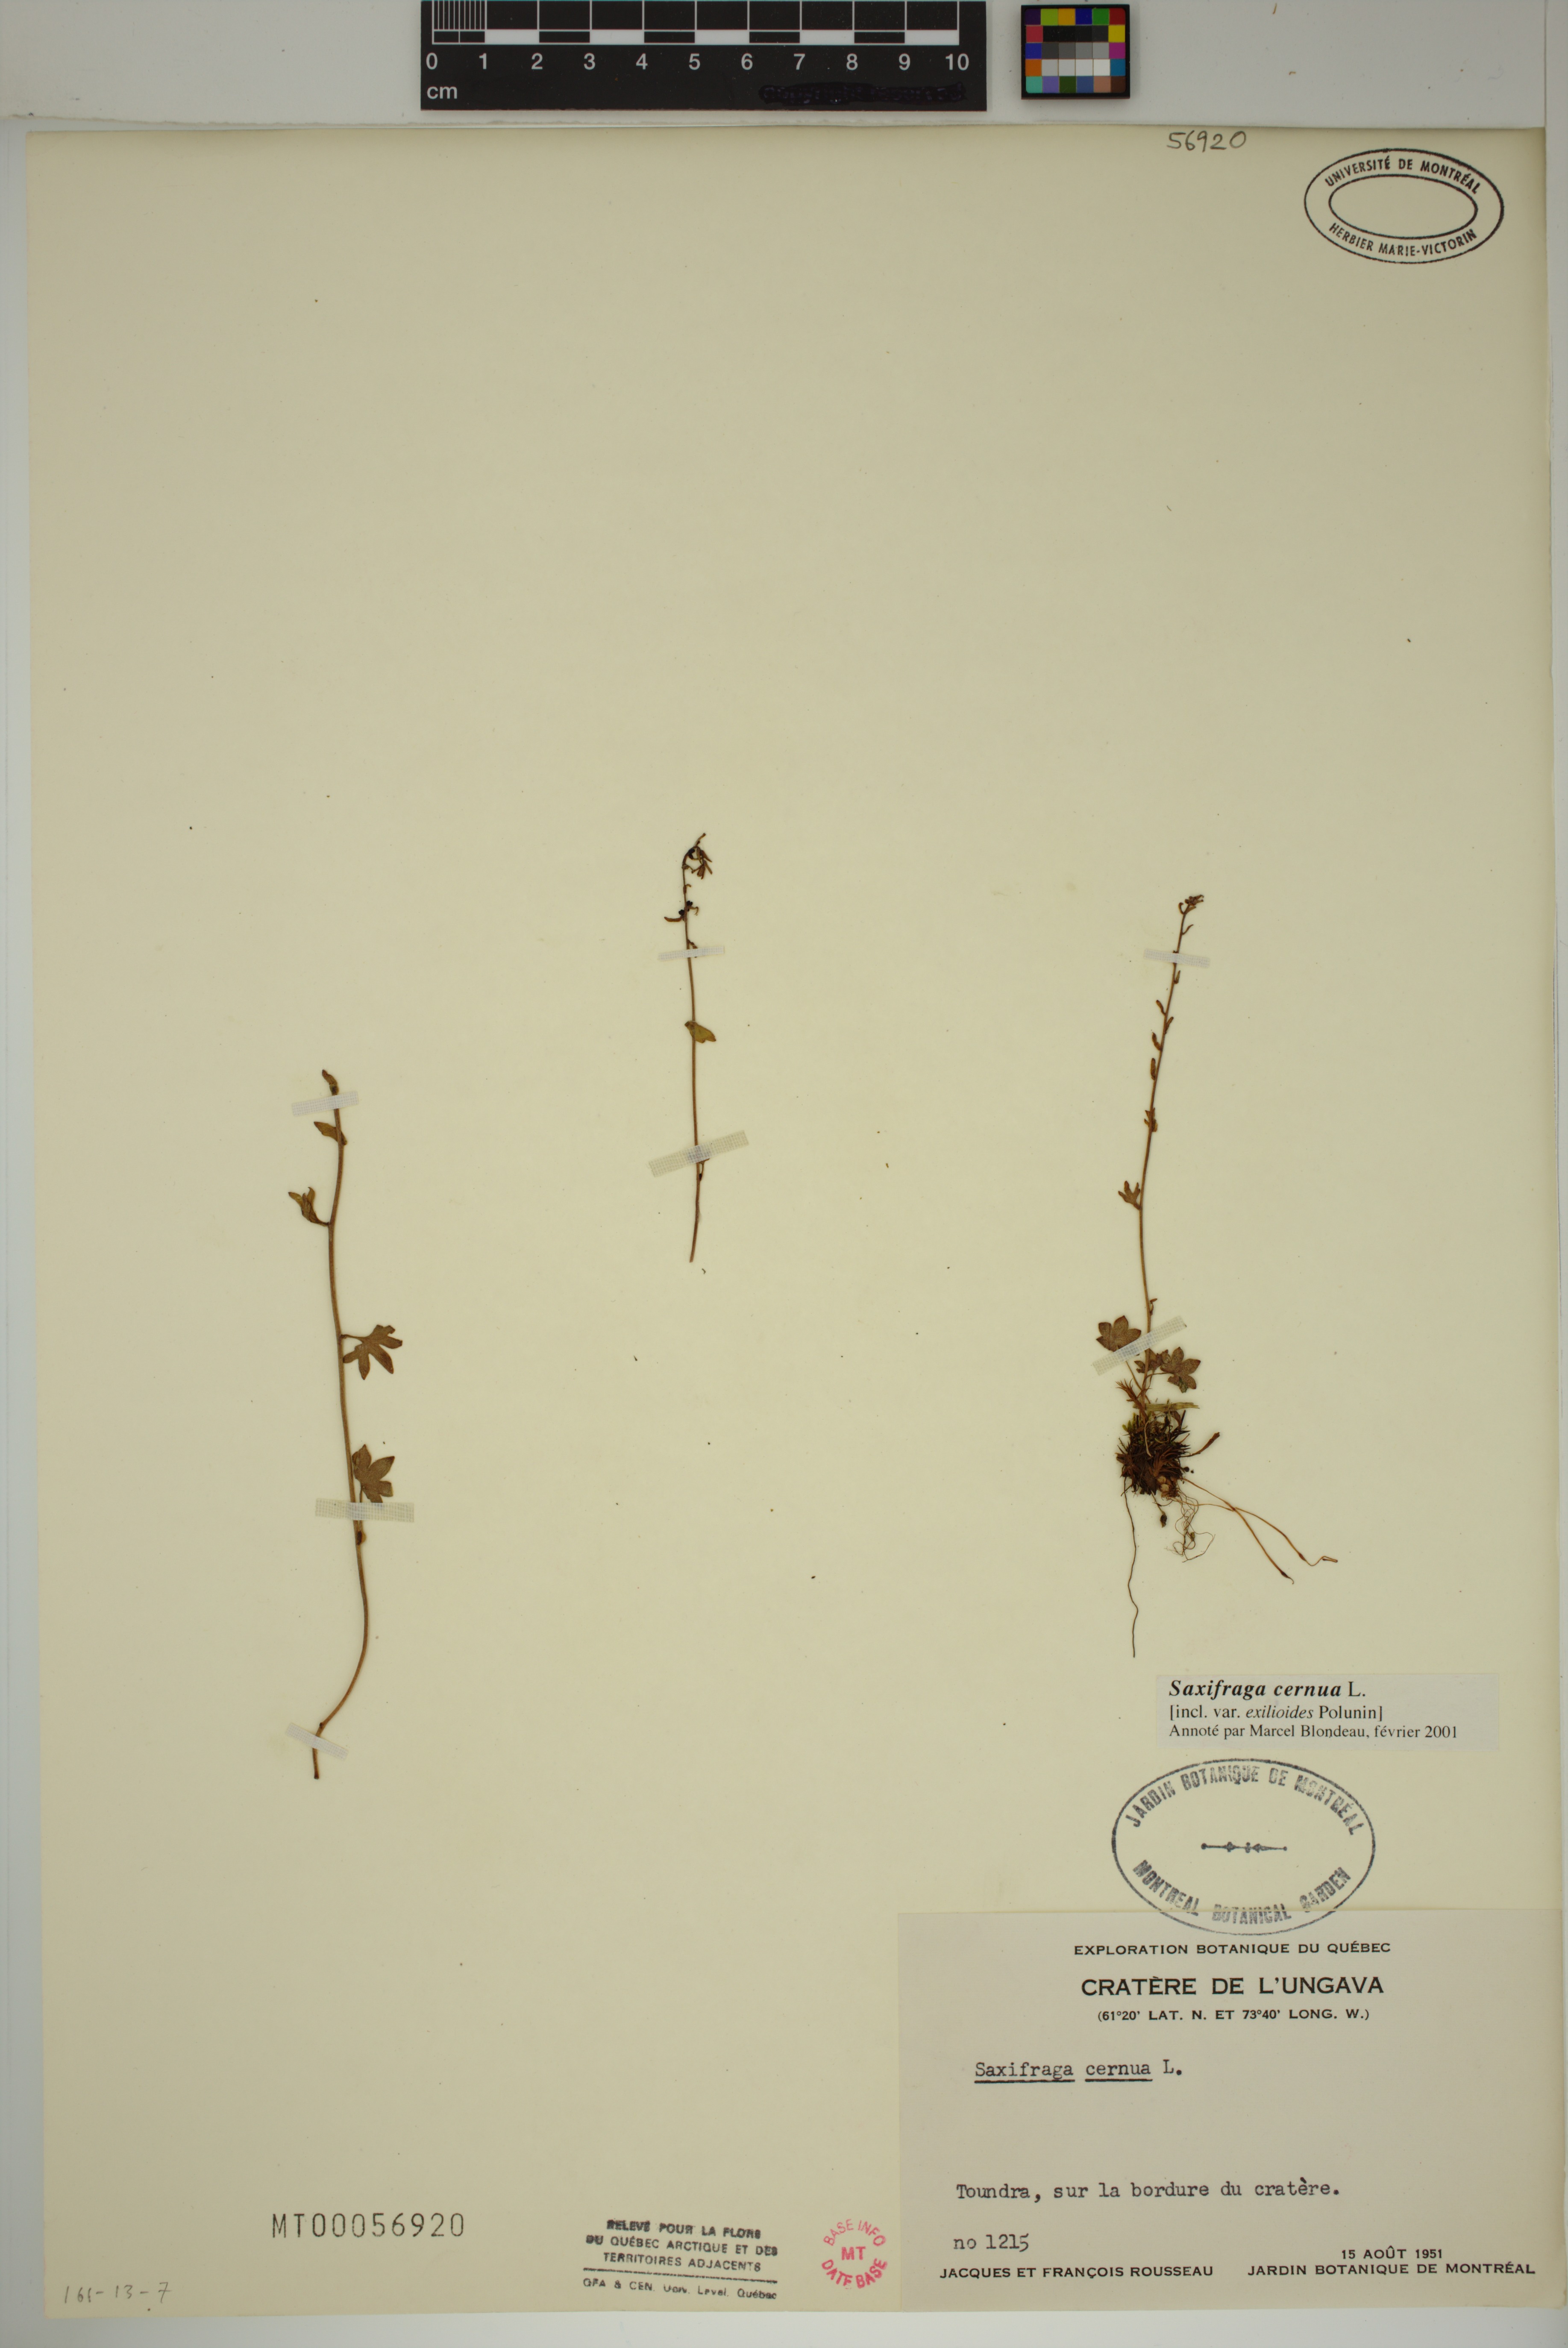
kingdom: Plantae
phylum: Tracheophyta
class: Magnoliopsida
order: Saxifragales
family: Saxifragaceae
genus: Saxifraga
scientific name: Saxifraga cernua
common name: Drooping saxifrage
